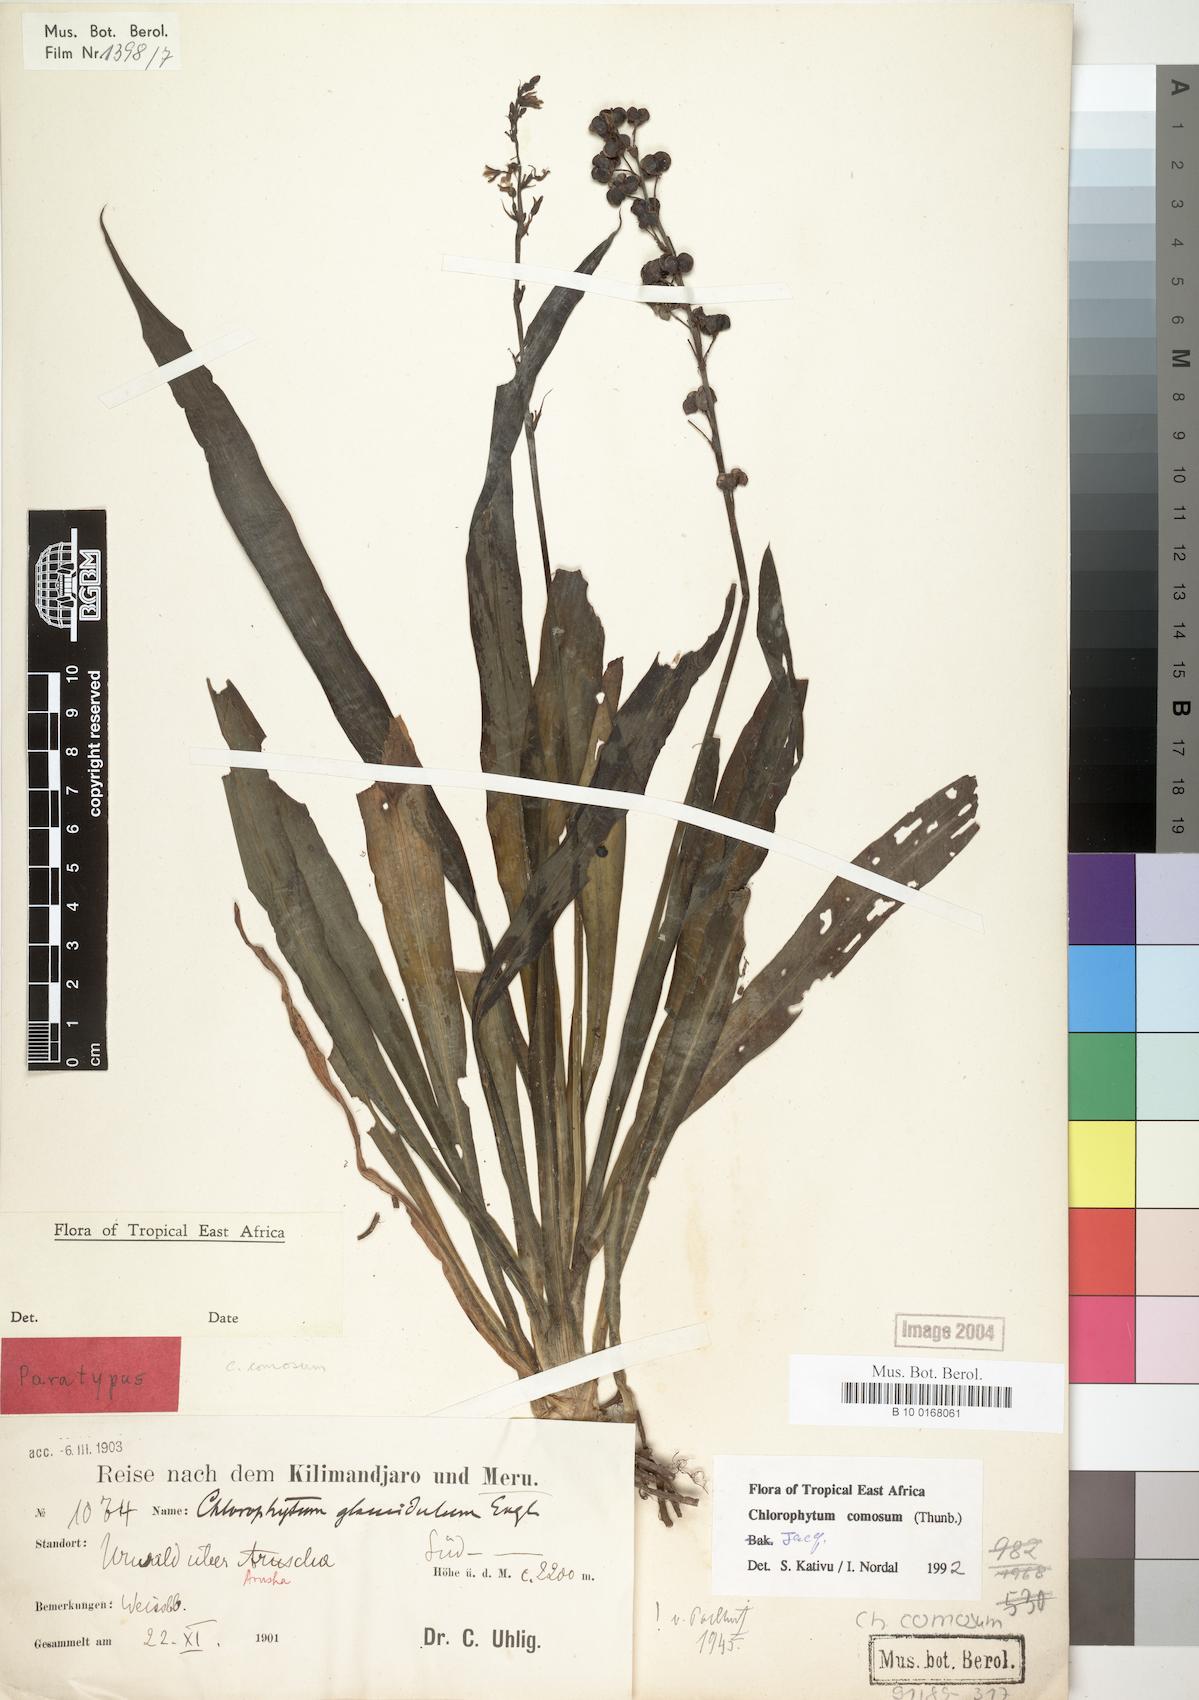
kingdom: Plantae
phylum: Tracheophyta
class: Liliopsida
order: Asparagales
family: Asparagaceae
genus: Chlorophytum
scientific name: Chlorophytum comosum
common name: Spider plant
